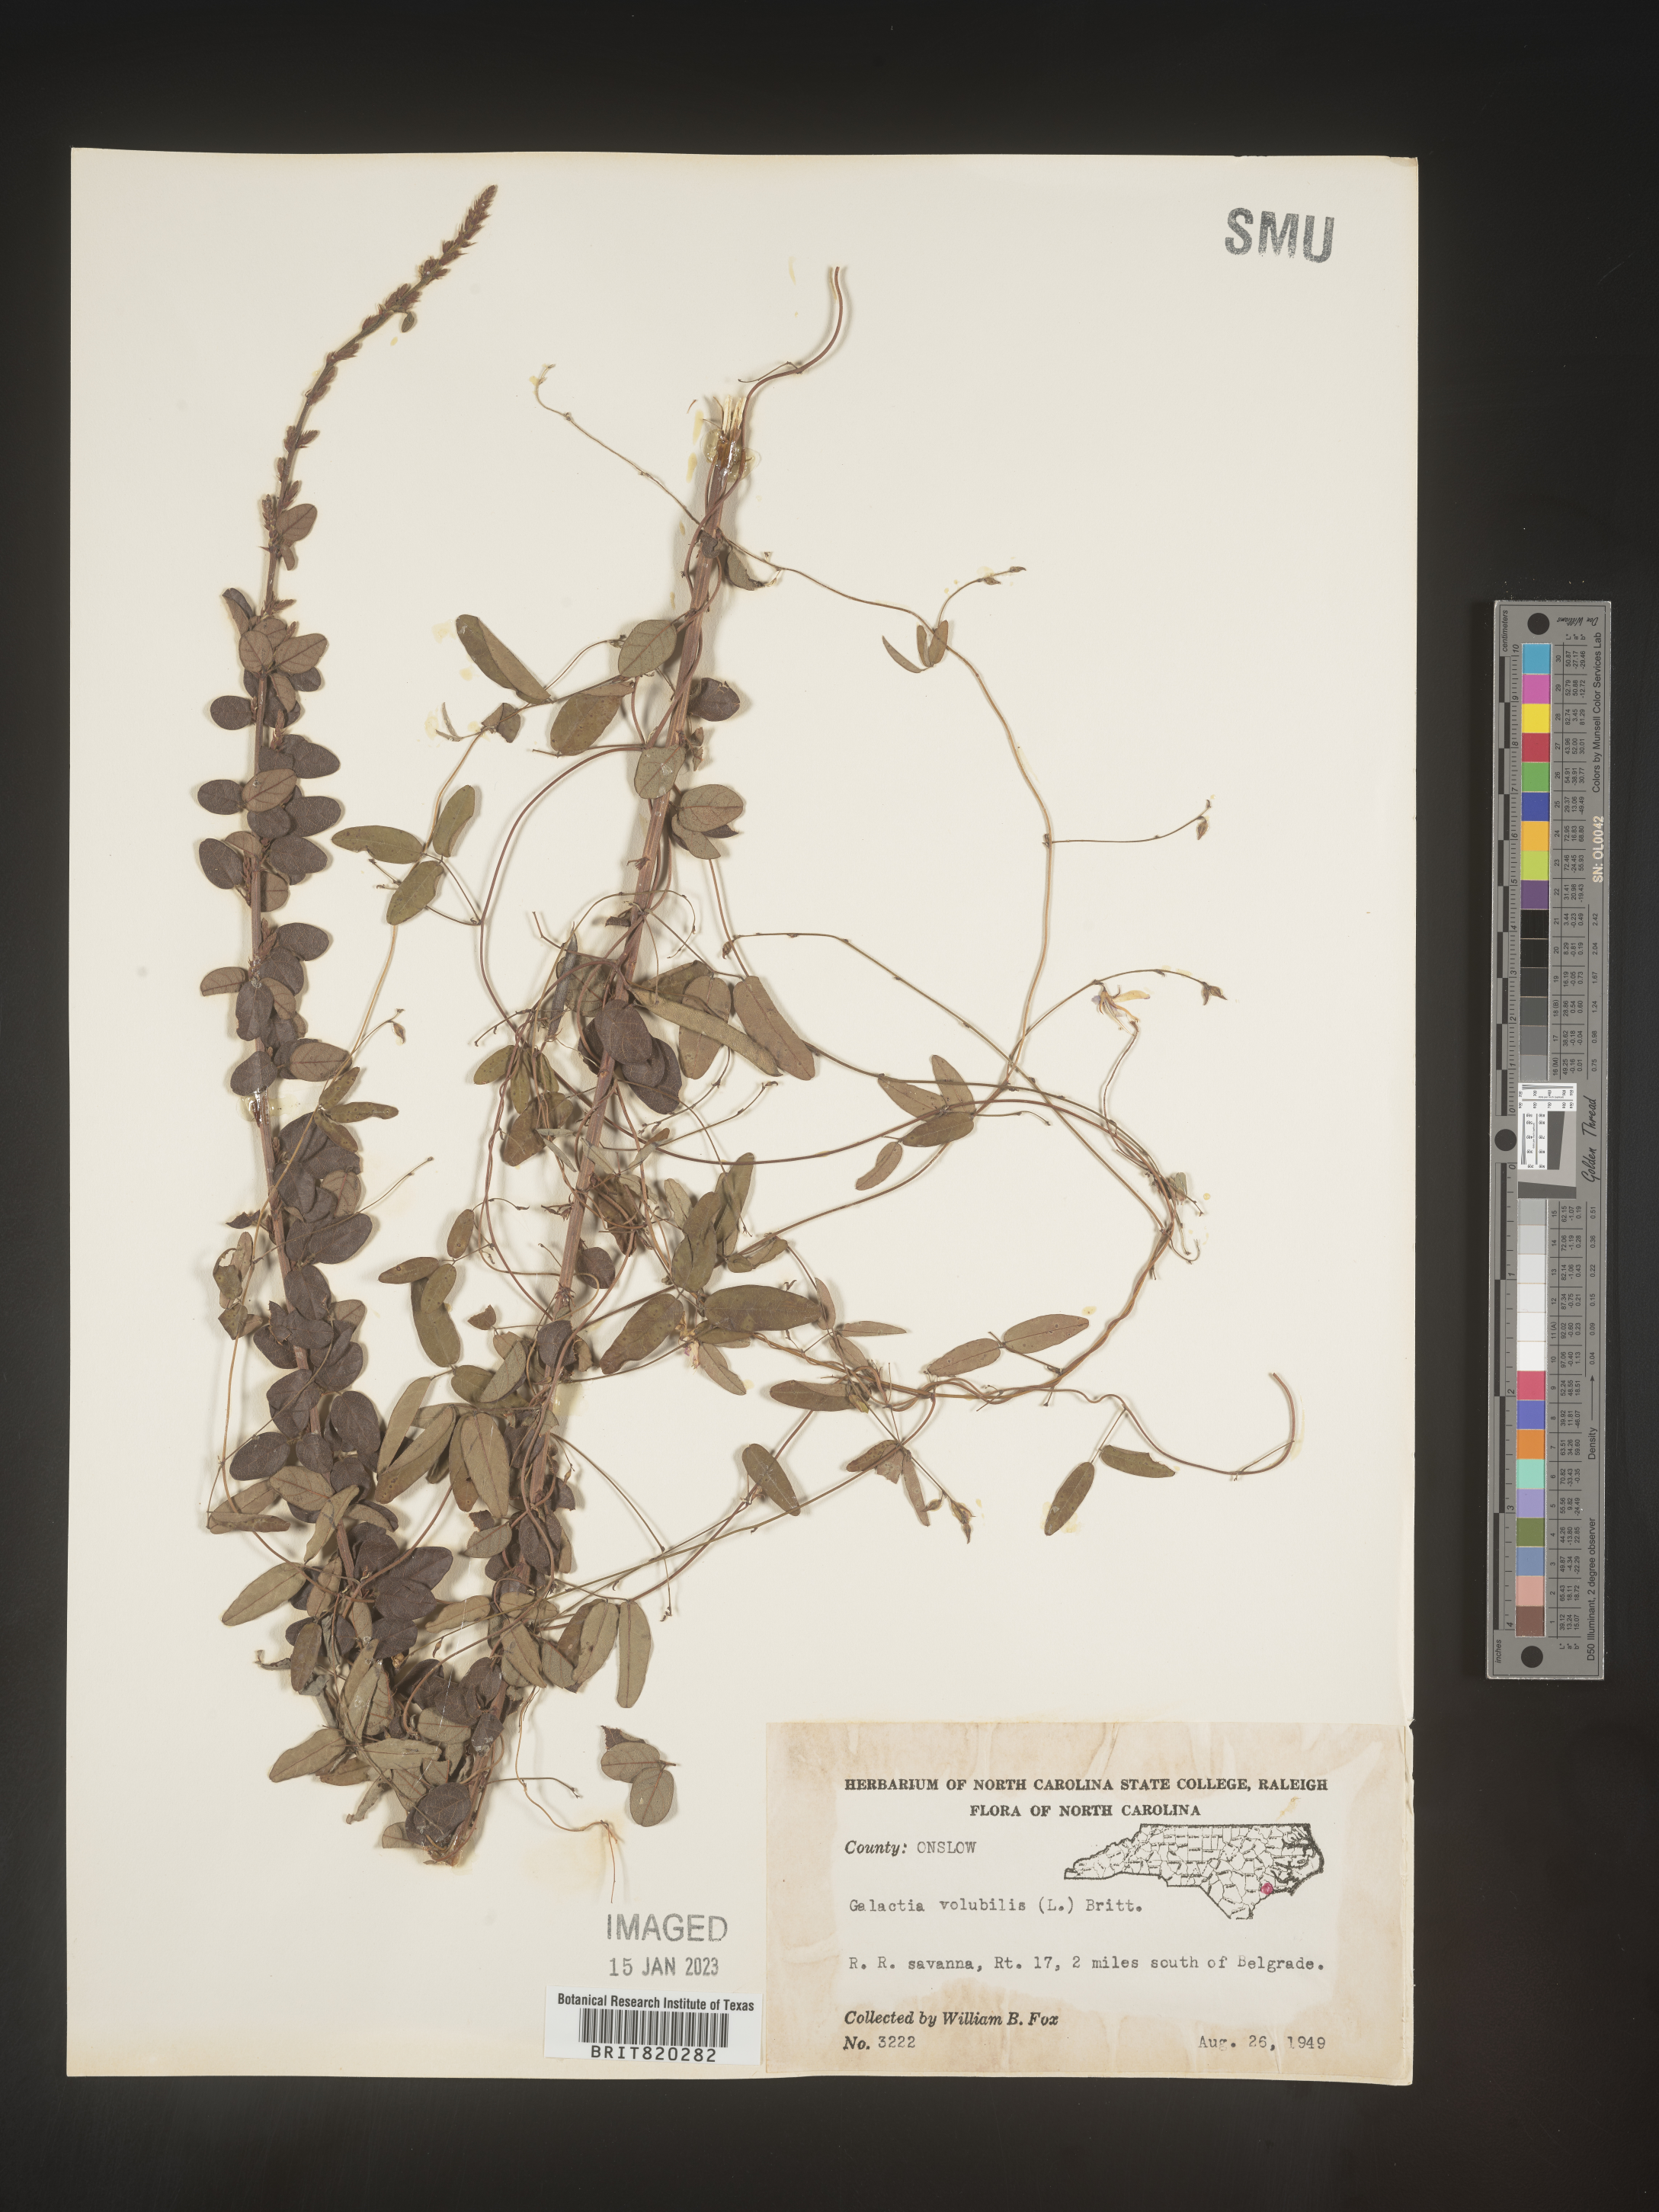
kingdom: Plantae
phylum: Tracheophyta
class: Magnoliopsida
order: Fabales
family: Fabaceae
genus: Galactia
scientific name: Galactia volubilis
